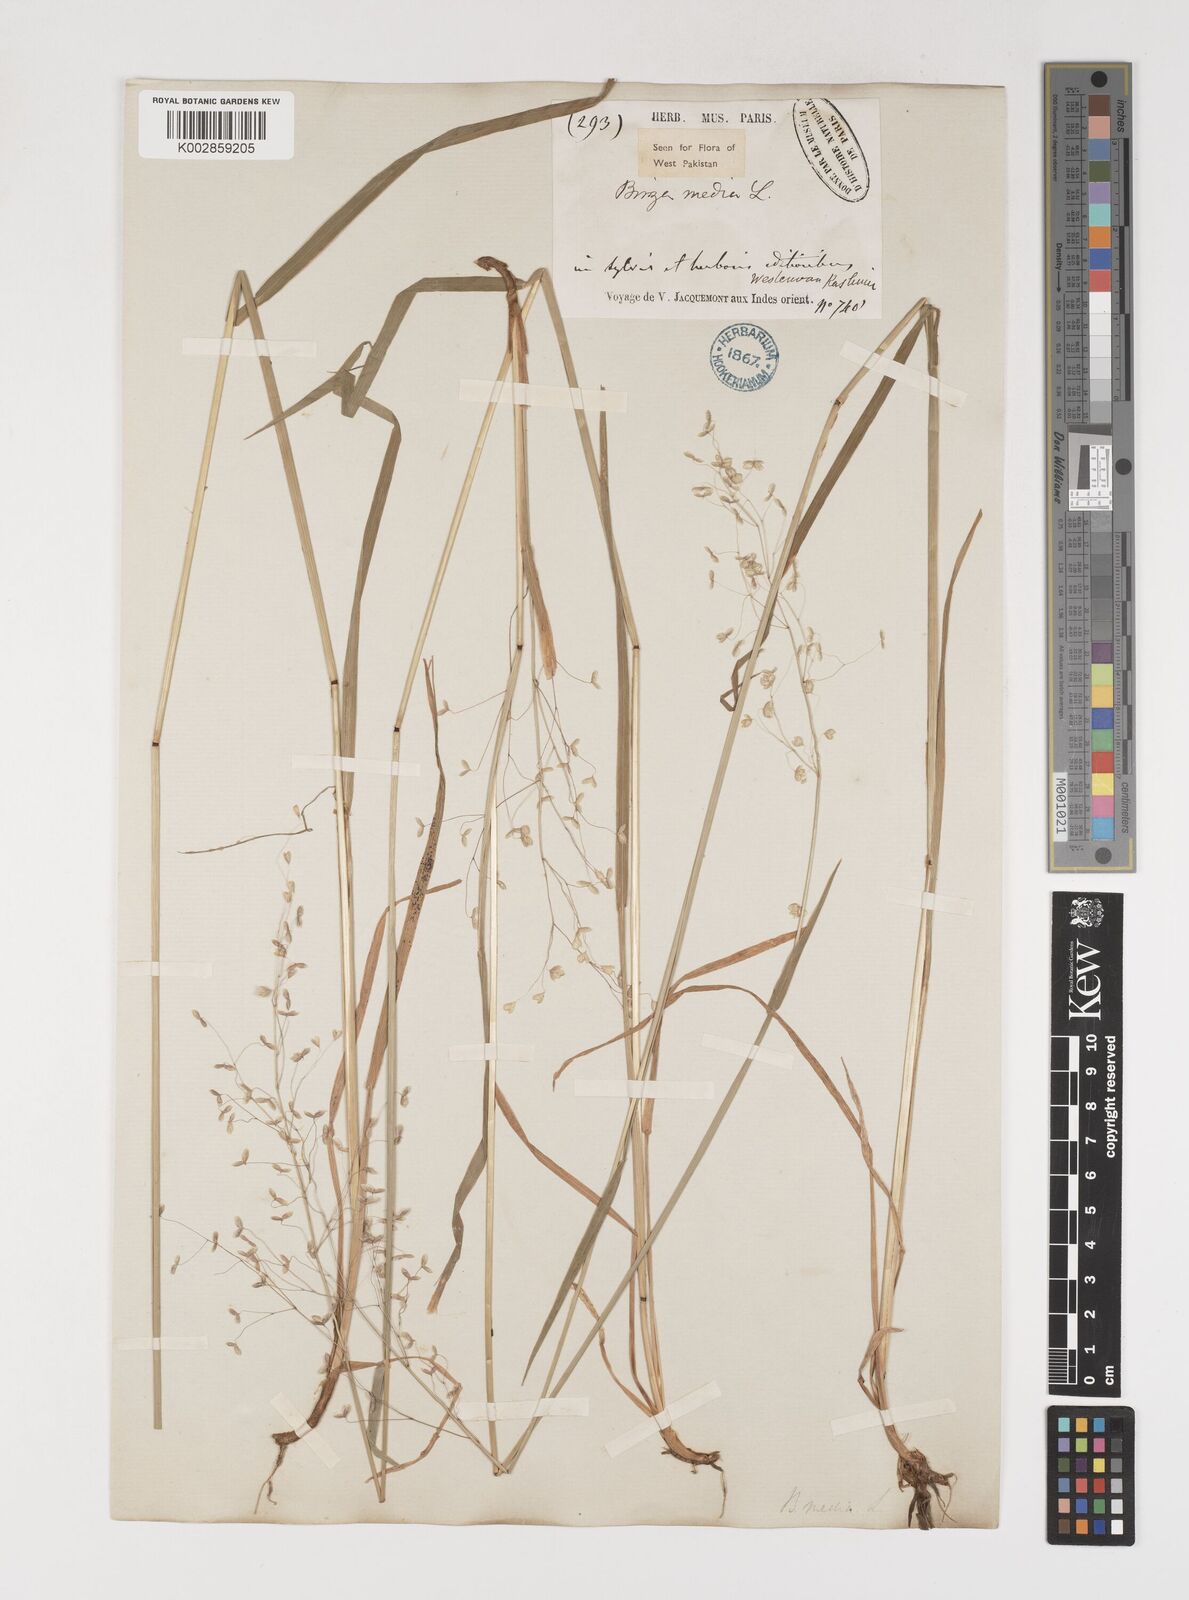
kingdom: Plantae
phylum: Tracheophyta
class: Liliopsida
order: Poales
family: Poaceae
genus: Briza
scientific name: Briza media
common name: Quaking grass
